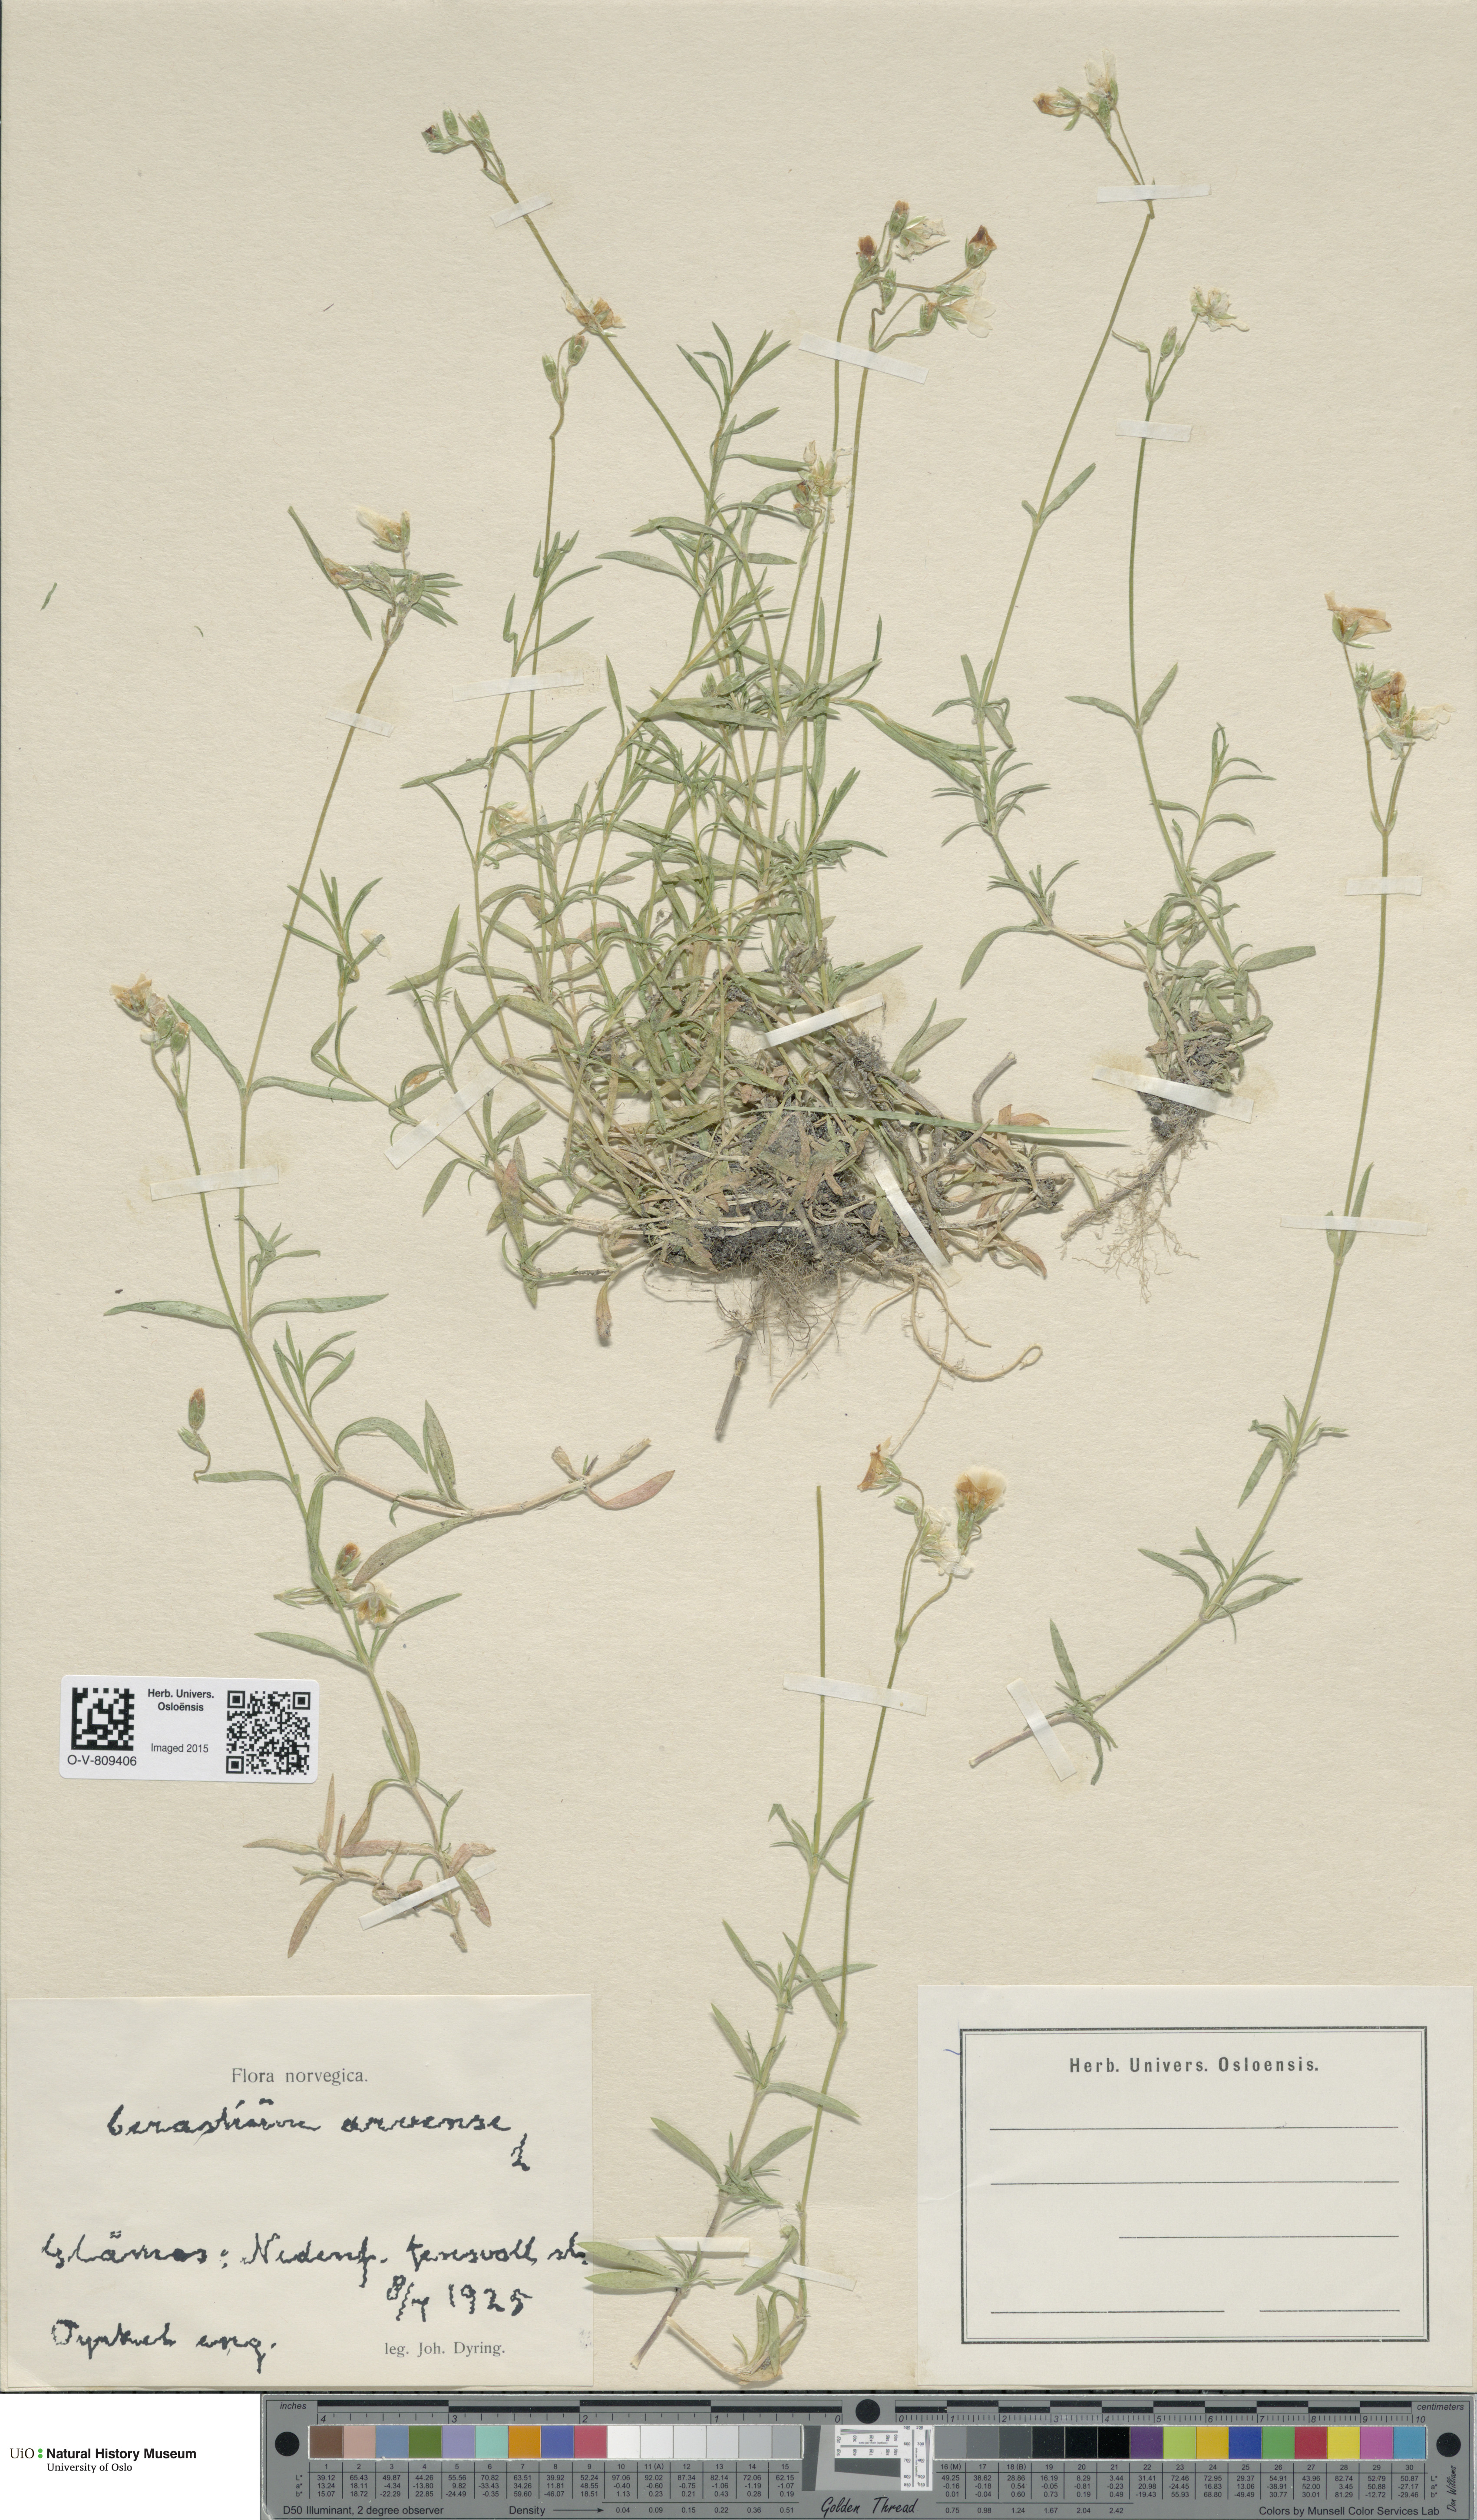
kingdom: Plantae
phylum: Tracheophyta
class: Magnoliopsida
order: Caryophyllales
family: Caryophyllaceae
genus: Cerastium
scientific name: Cerastium arvense
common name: Field mouse-ear
